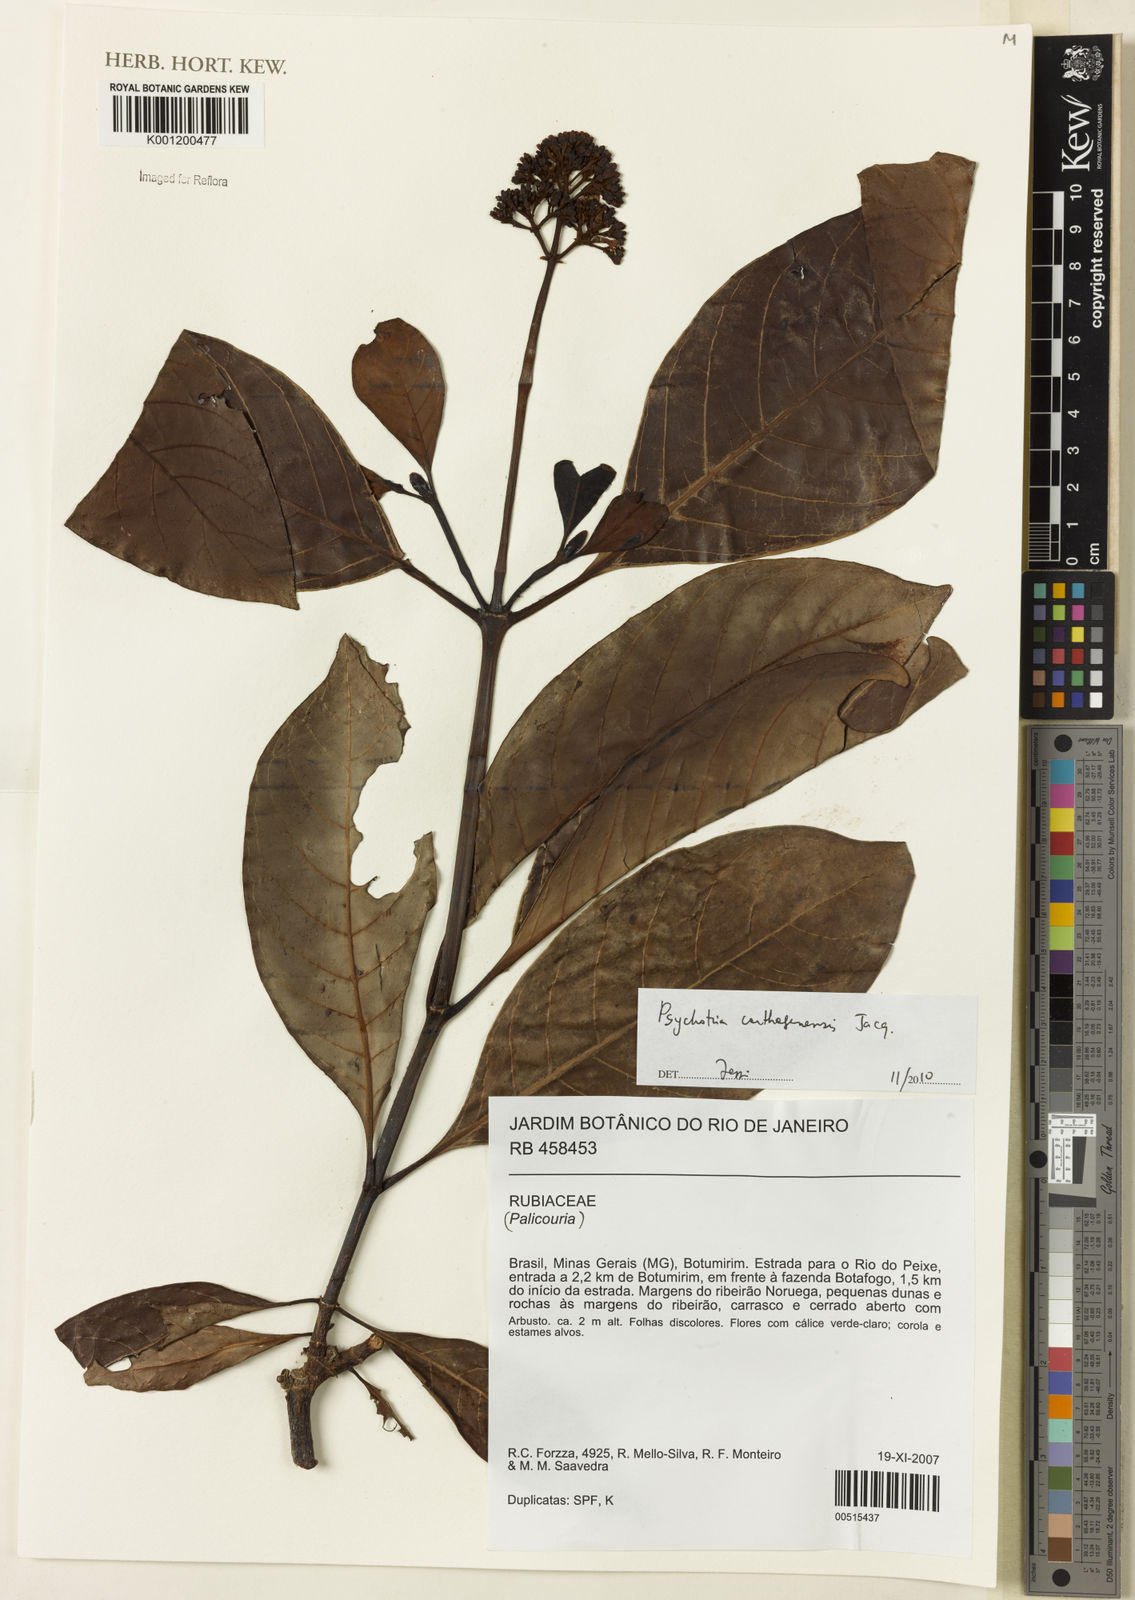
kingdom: Plantae
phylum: Tracheophyta
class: Magnoliopsida
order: Gentianales
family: Rubiaceae
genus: Psychotria
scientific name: Psychotria carthagenensis
